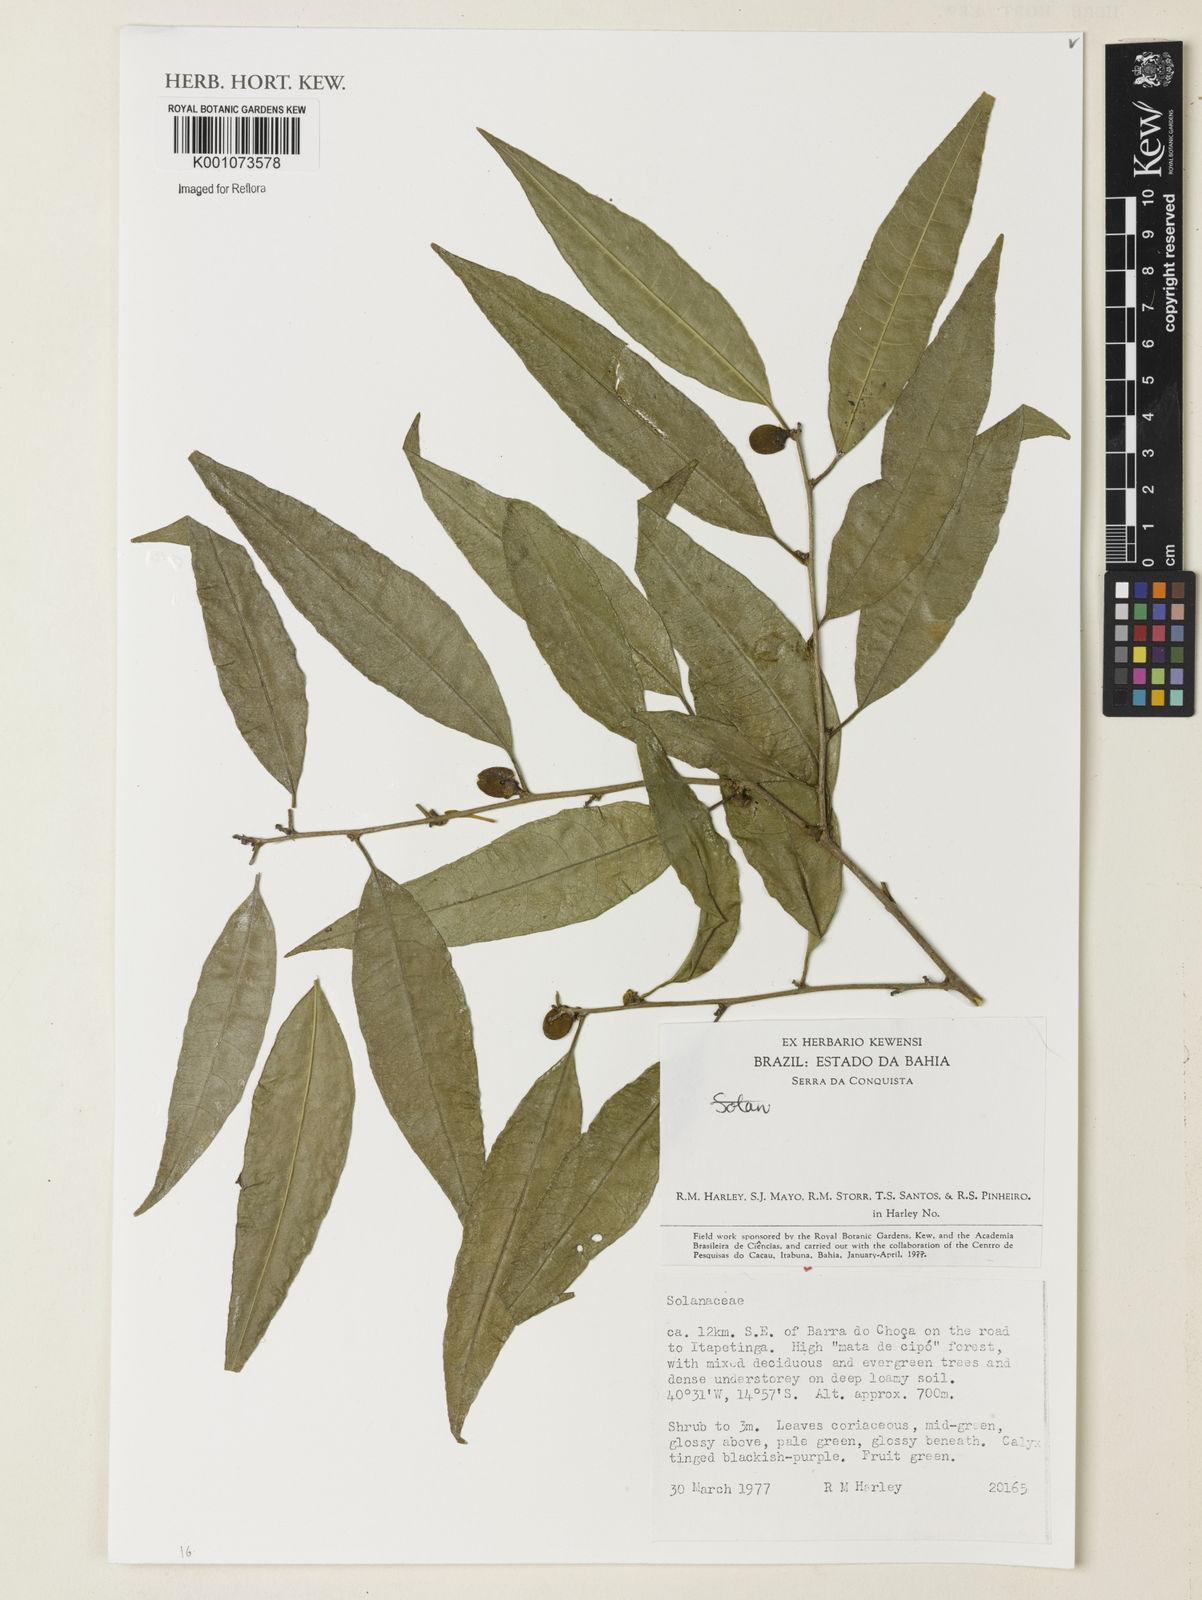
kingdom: Plantae
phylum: Tracheophyta
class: Magnoliopsida
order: Solanales
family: Solanaceae
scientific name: Solanaceae
